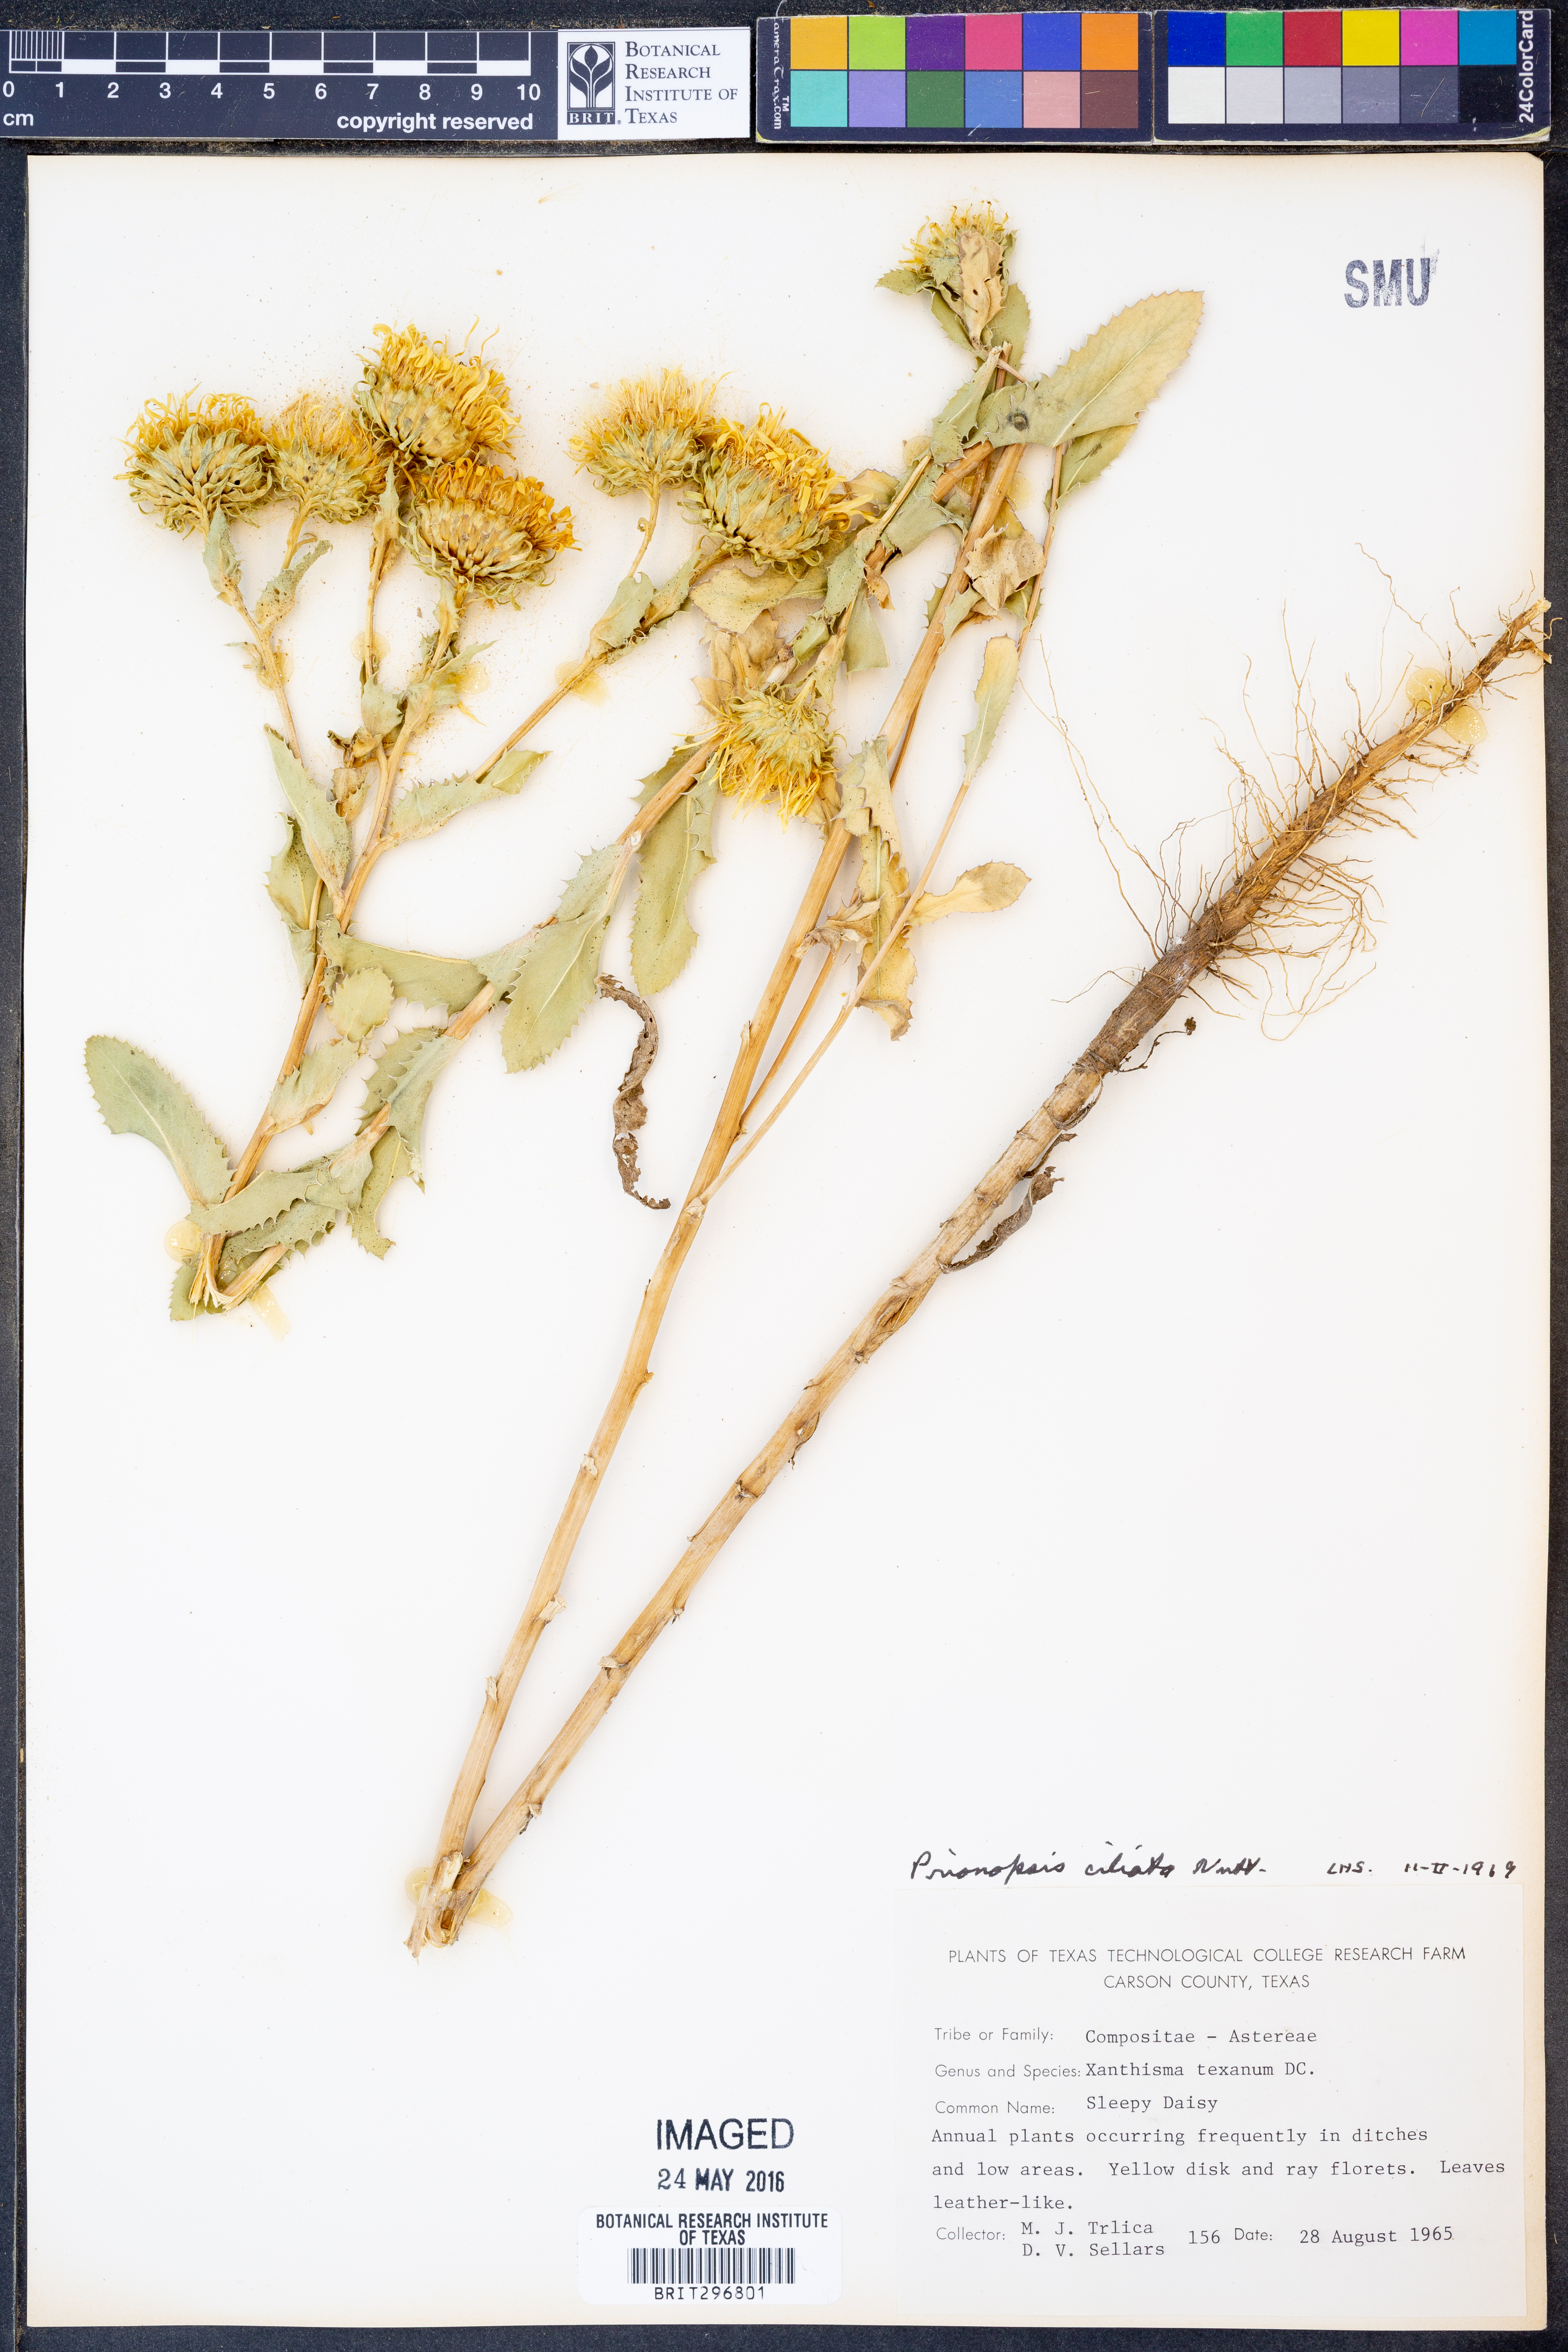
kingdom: Plantae
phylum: Tracheophyta
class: Magnoliopsida
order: Asterales
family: Asteraceae
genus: Grindelia
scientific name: Grindelia ciliata
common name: Goldenweed
